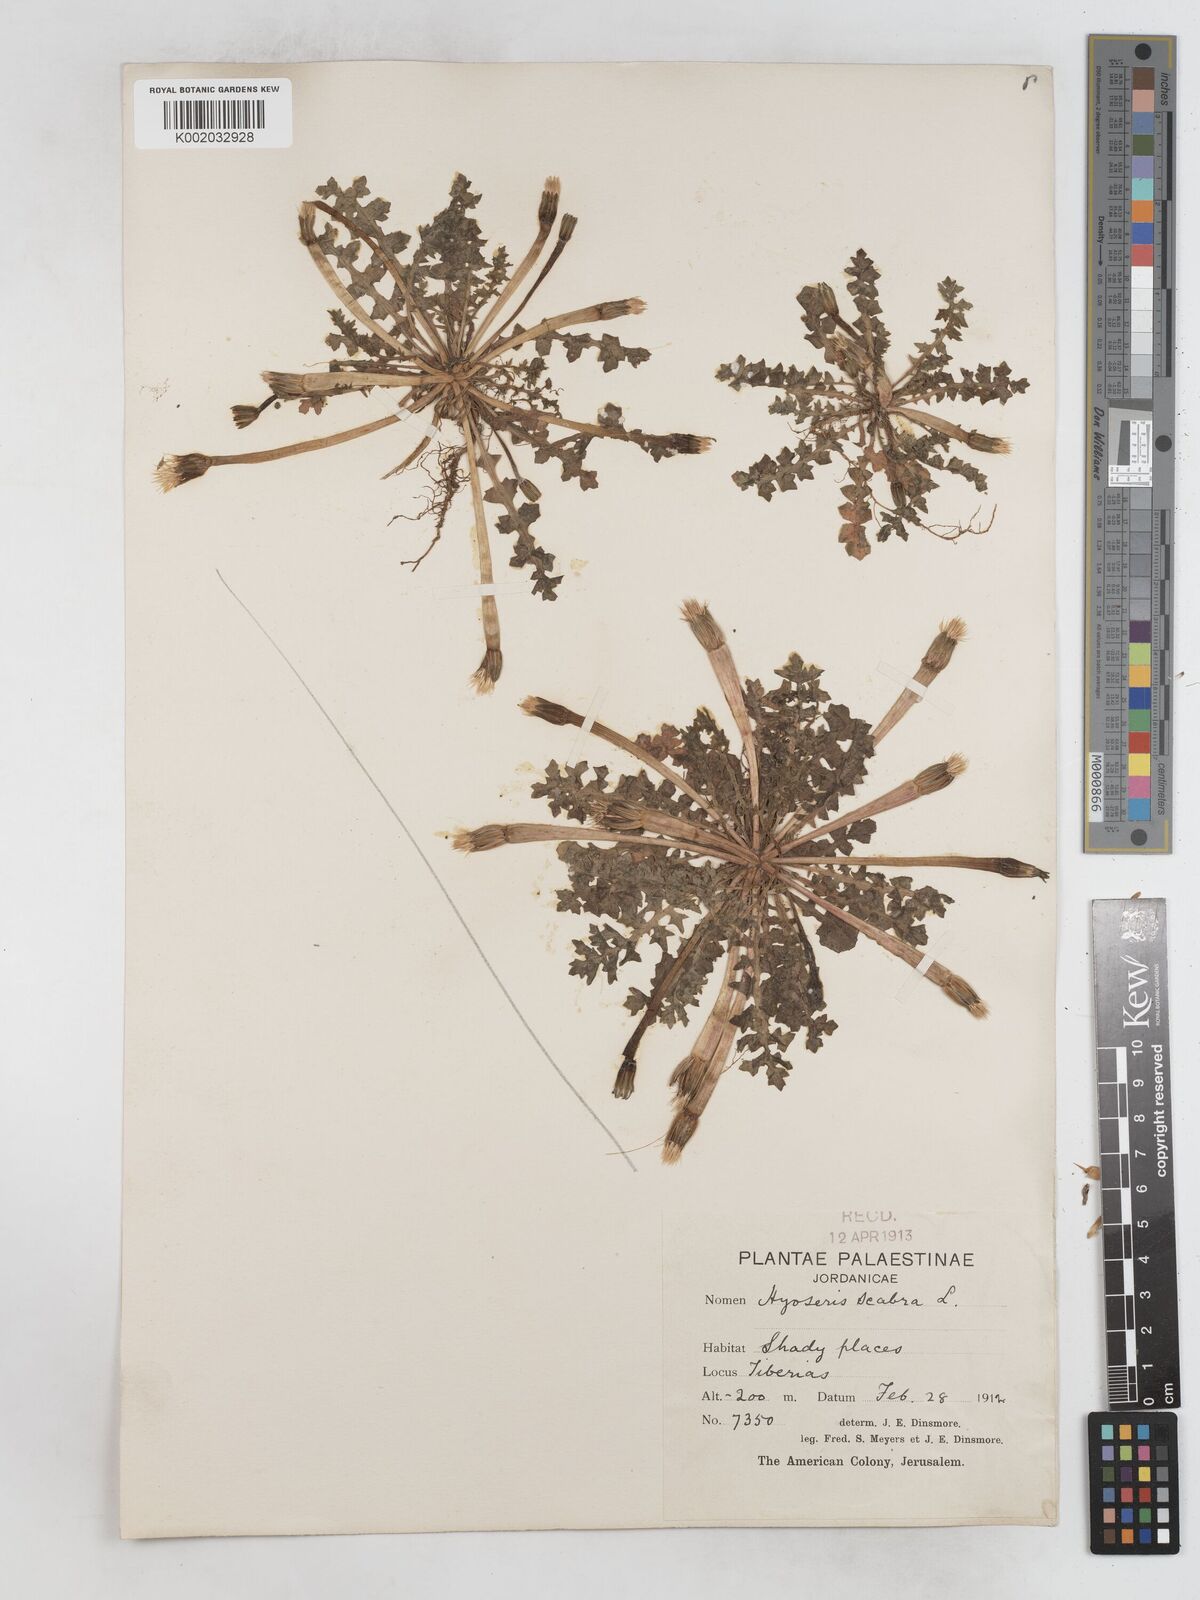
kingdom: Plantae
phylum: Tracheophyta
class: Magnoliopsida
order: Asterales
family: Asteraceae
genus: Hyoseris
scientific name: Hyoseris scabra
